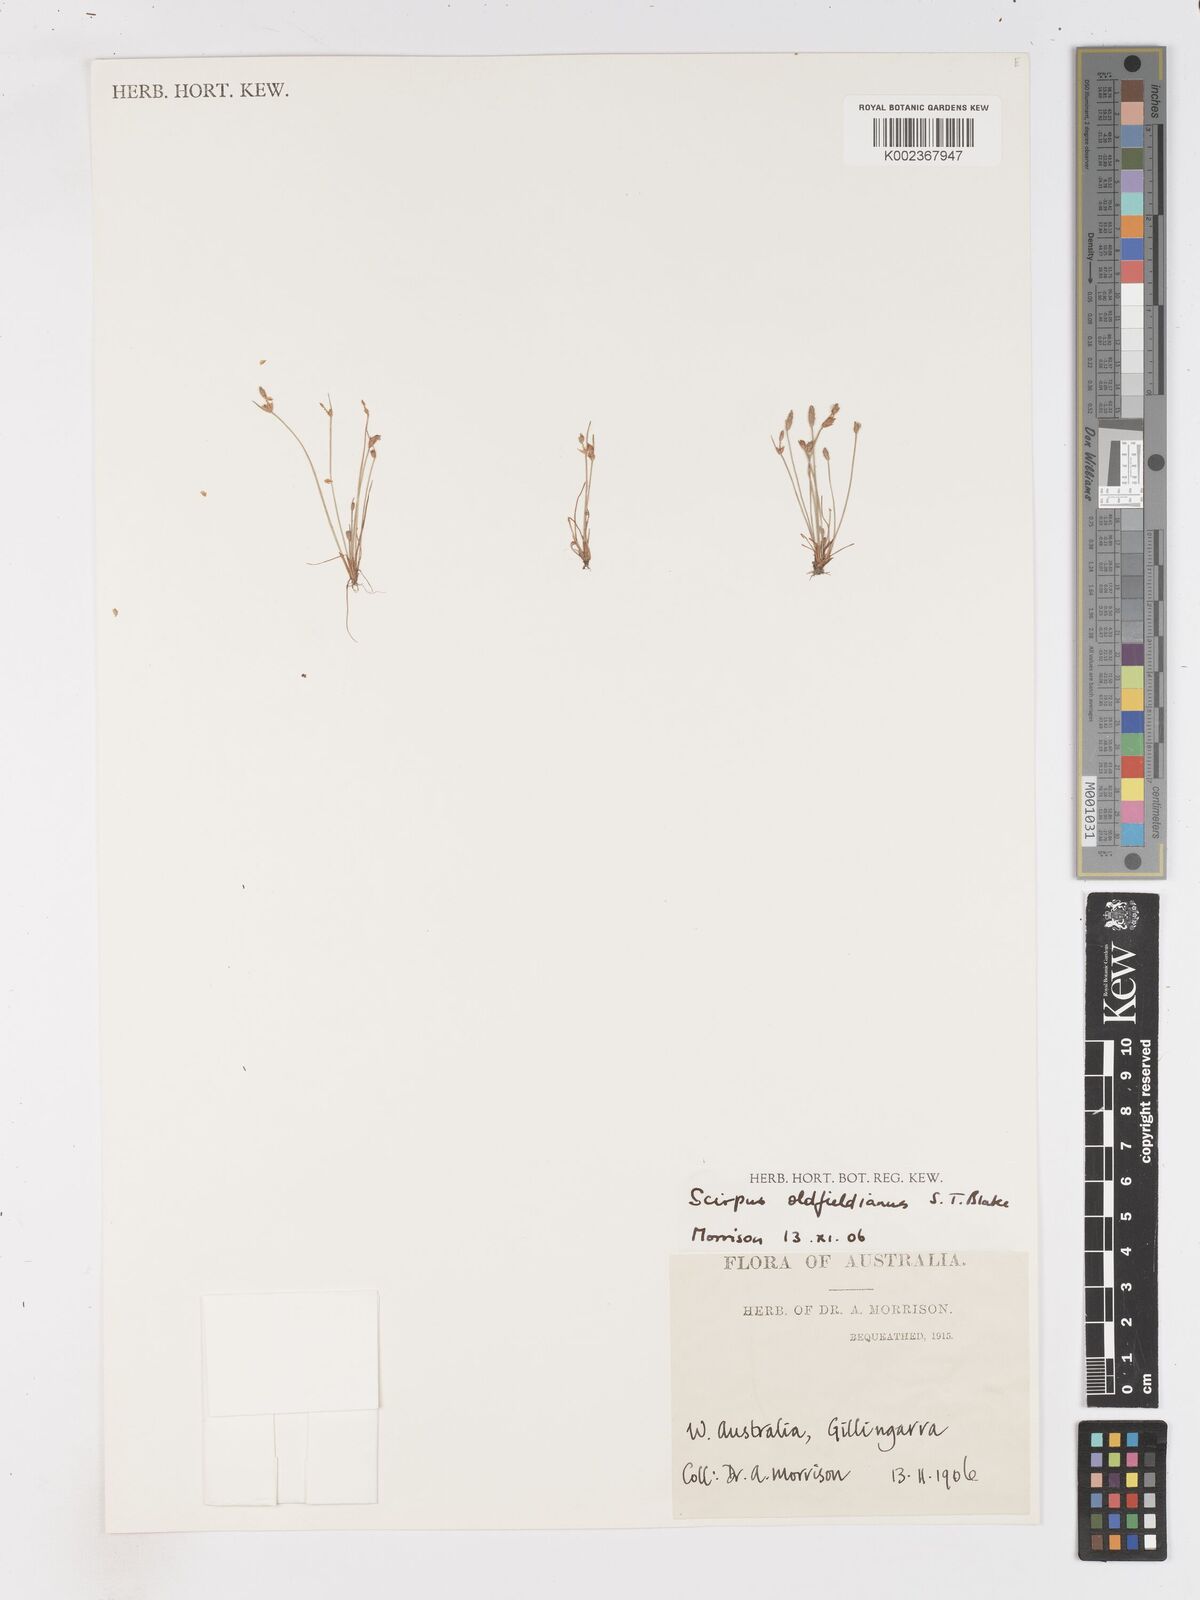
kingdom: Plantae
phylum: Tracheophyta
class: Liliopsida
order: Poales
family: Cyperaceae
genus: Isolepis
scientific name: Isolepis oldfieldiana
